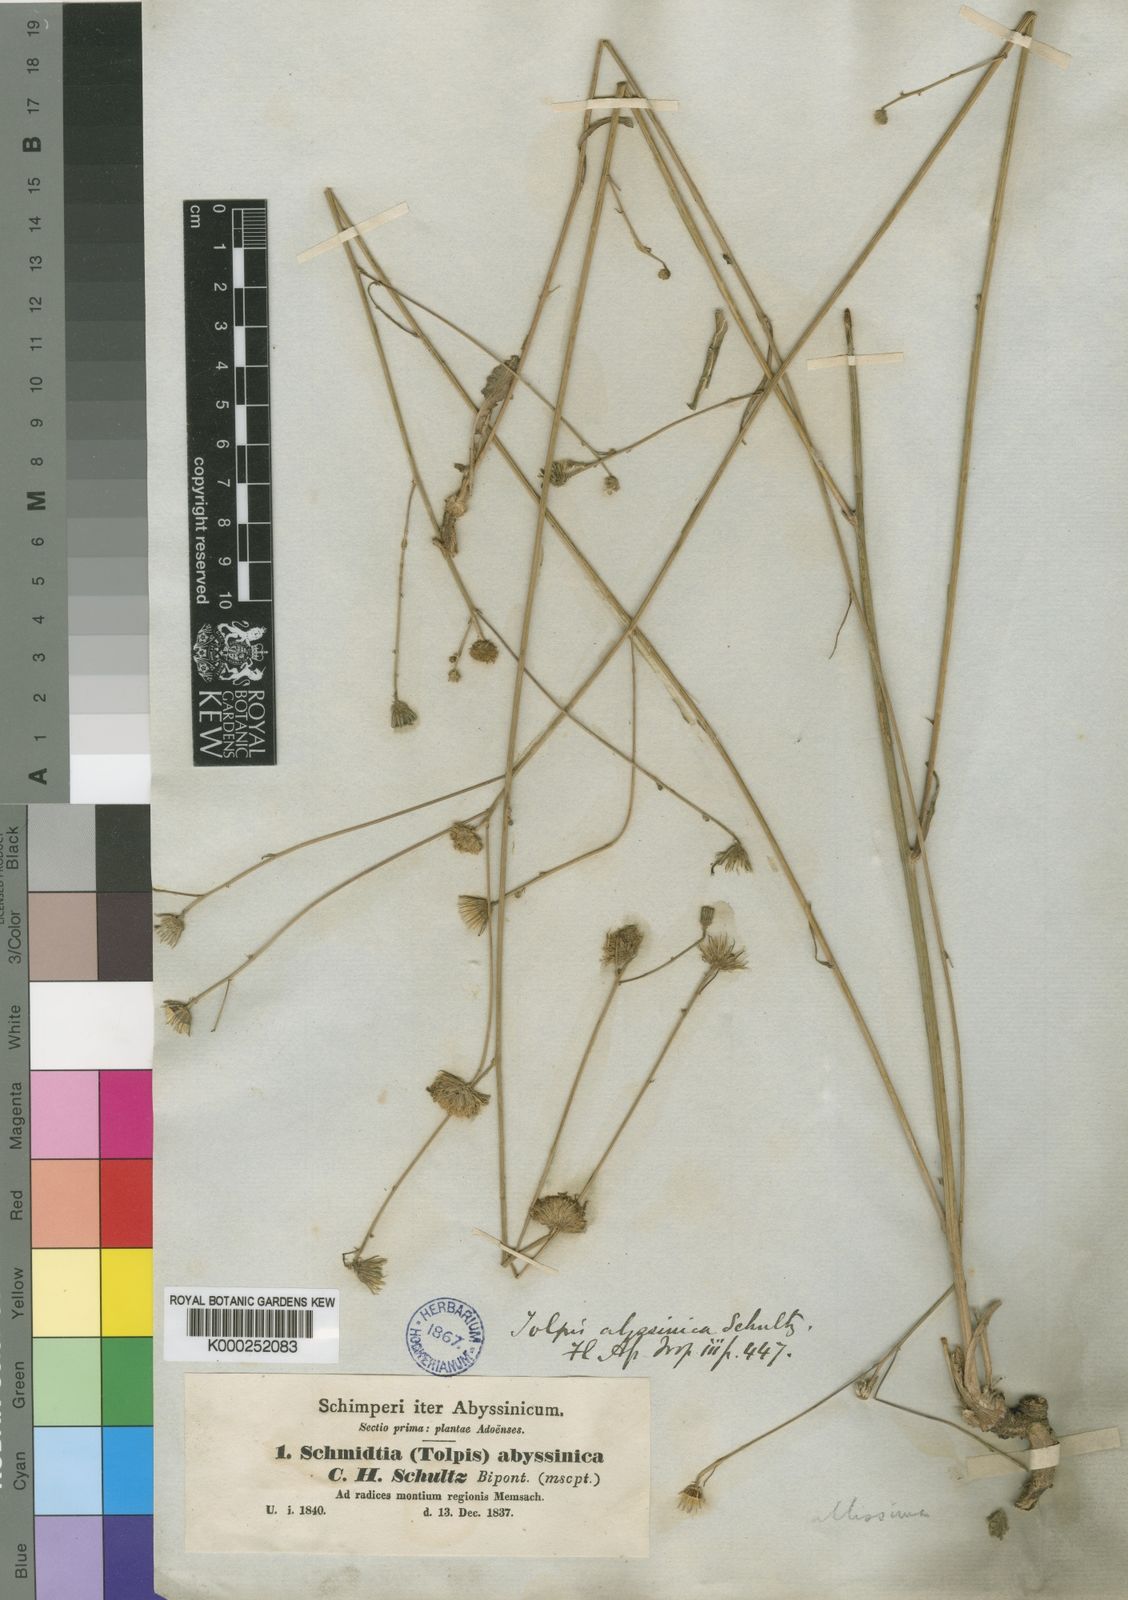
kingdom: Plantae
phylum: Tracheophyta
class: Magnoliopsida
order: Asterales
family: Asteraceae
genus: Tolpis
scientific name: Tolpis
